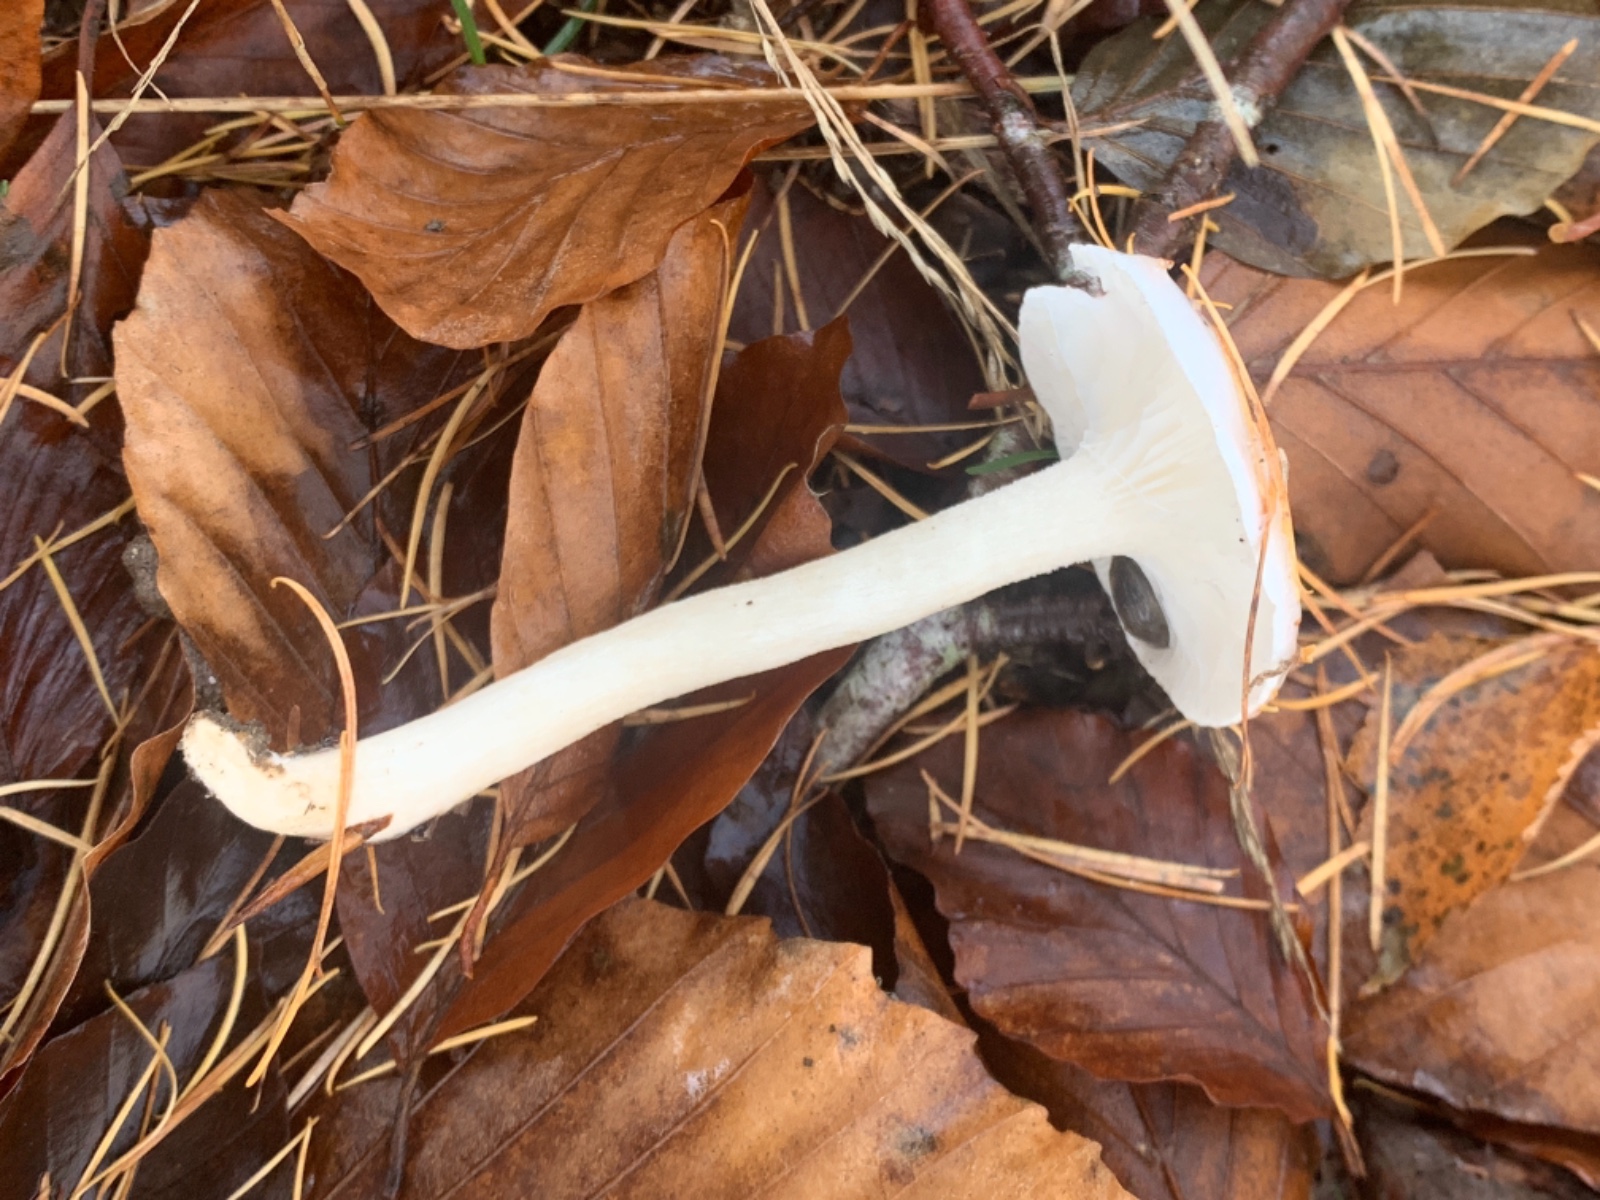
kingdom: Fungi
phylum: Basidiomycota
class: Agaricomycetes
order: Agaricales
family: Hygrophoraceae
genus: Hygrophorus
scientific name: Hygrophorus eburneus
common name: elfenbens-sneglehat
